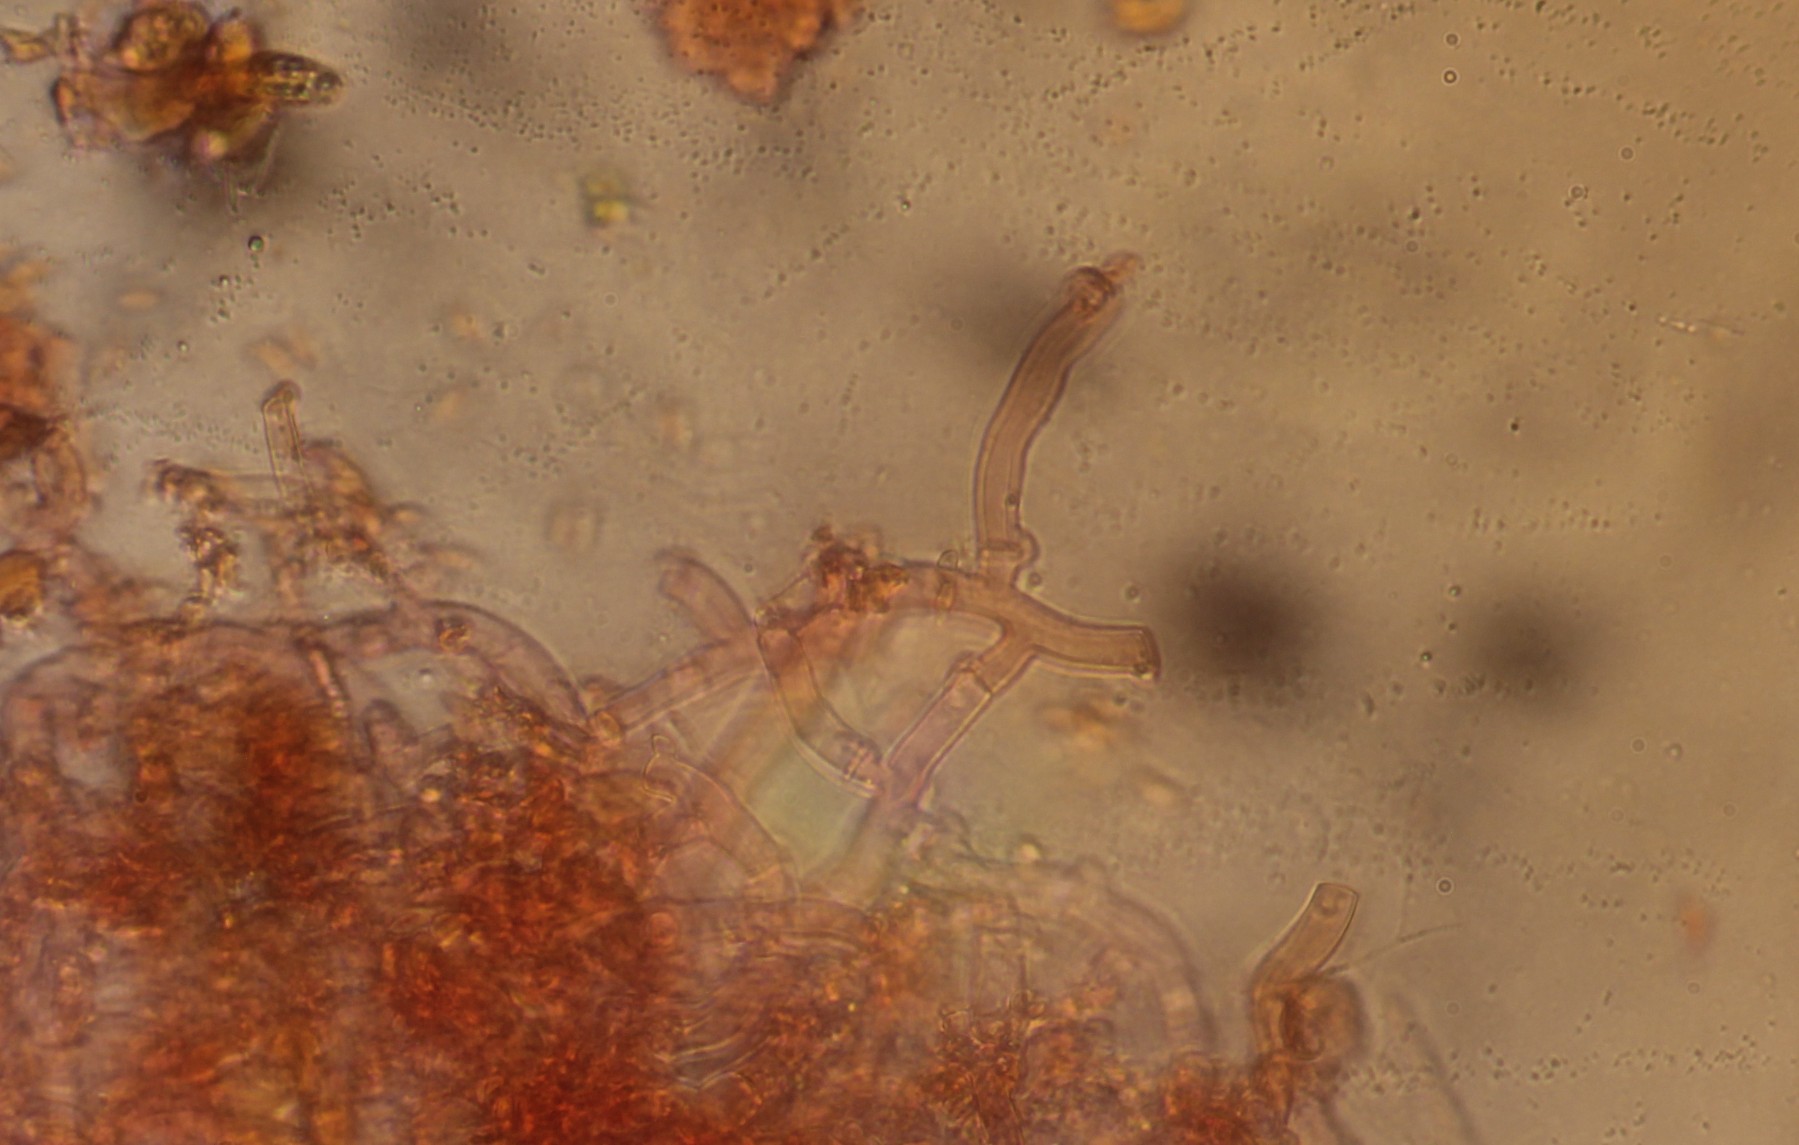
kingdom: Fungi
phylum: Basidiomycota
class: Agaricomycetes
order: Cantharellales
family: Botryobasidiaceae
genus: Botryobasidium
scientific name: Botryobasidium subcoronatum
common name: almindelig spindhinde
